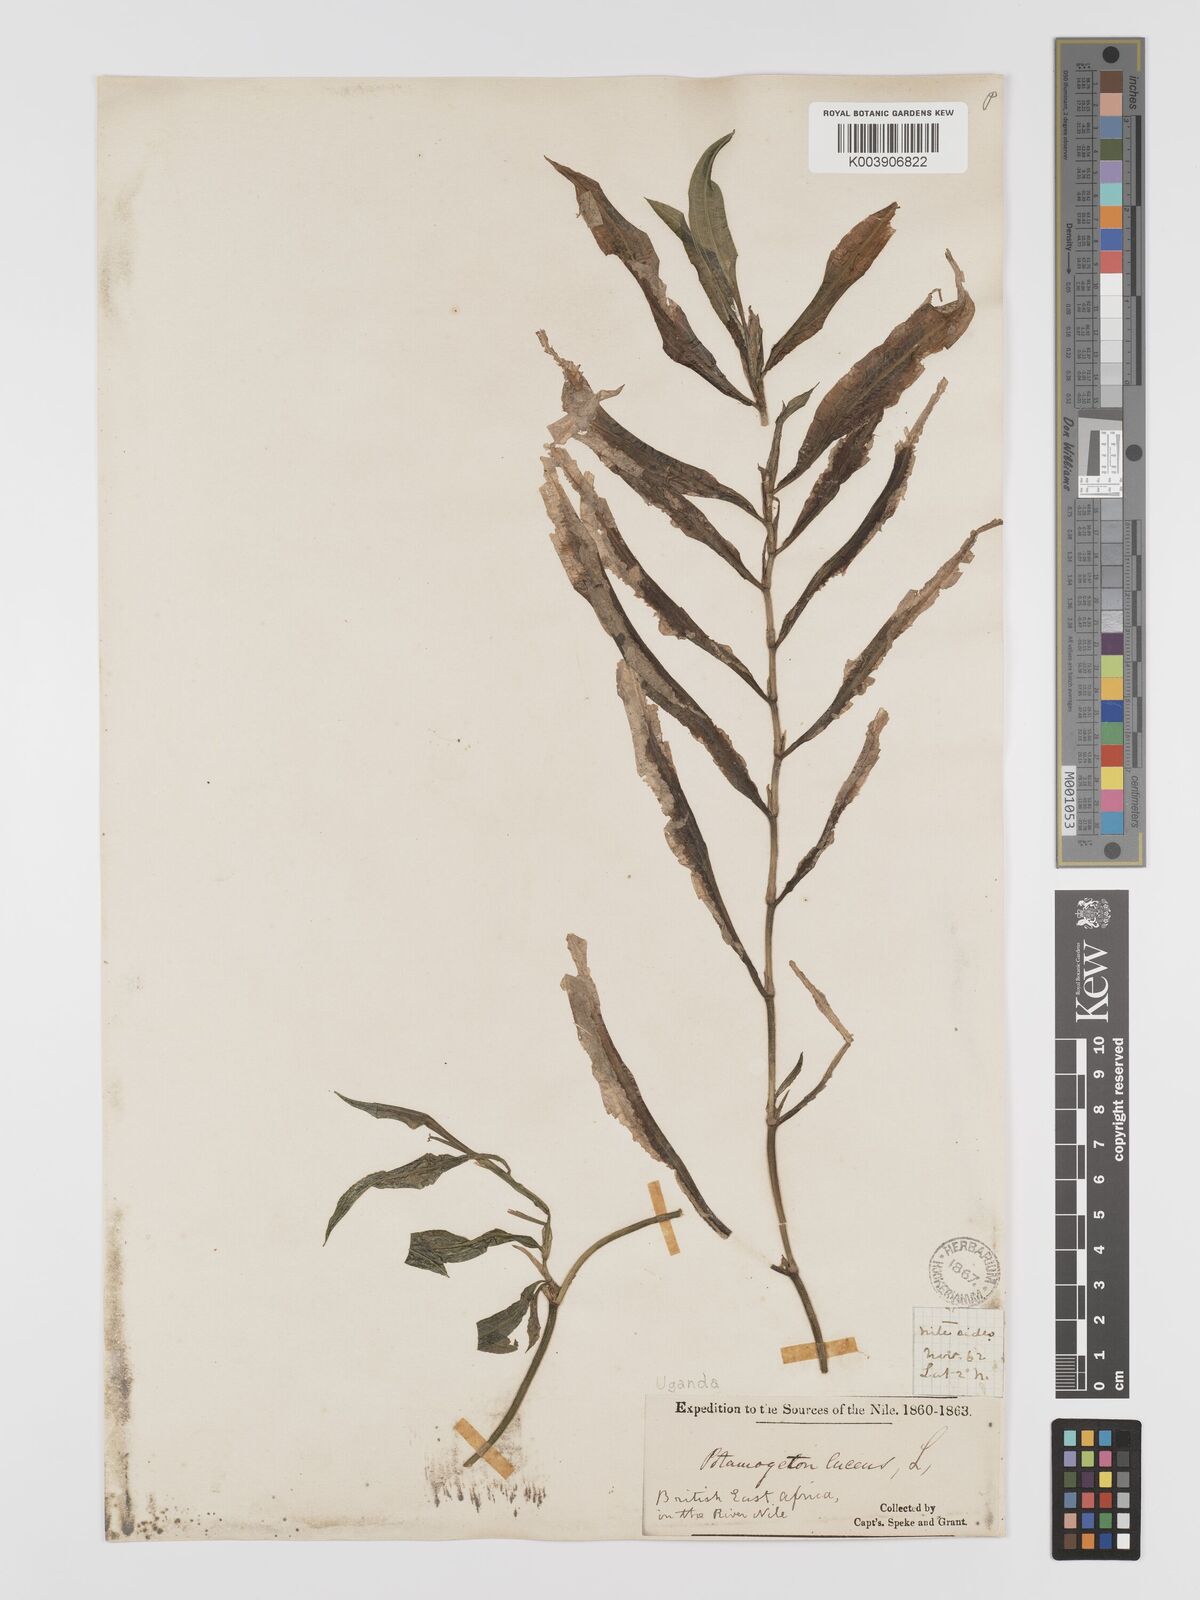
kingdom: Plantae
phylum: Tracheophyta
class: Liliopsida
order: Alismatales
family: Potamogetonaceae
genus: Potamogeton
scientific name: Potamogeton
